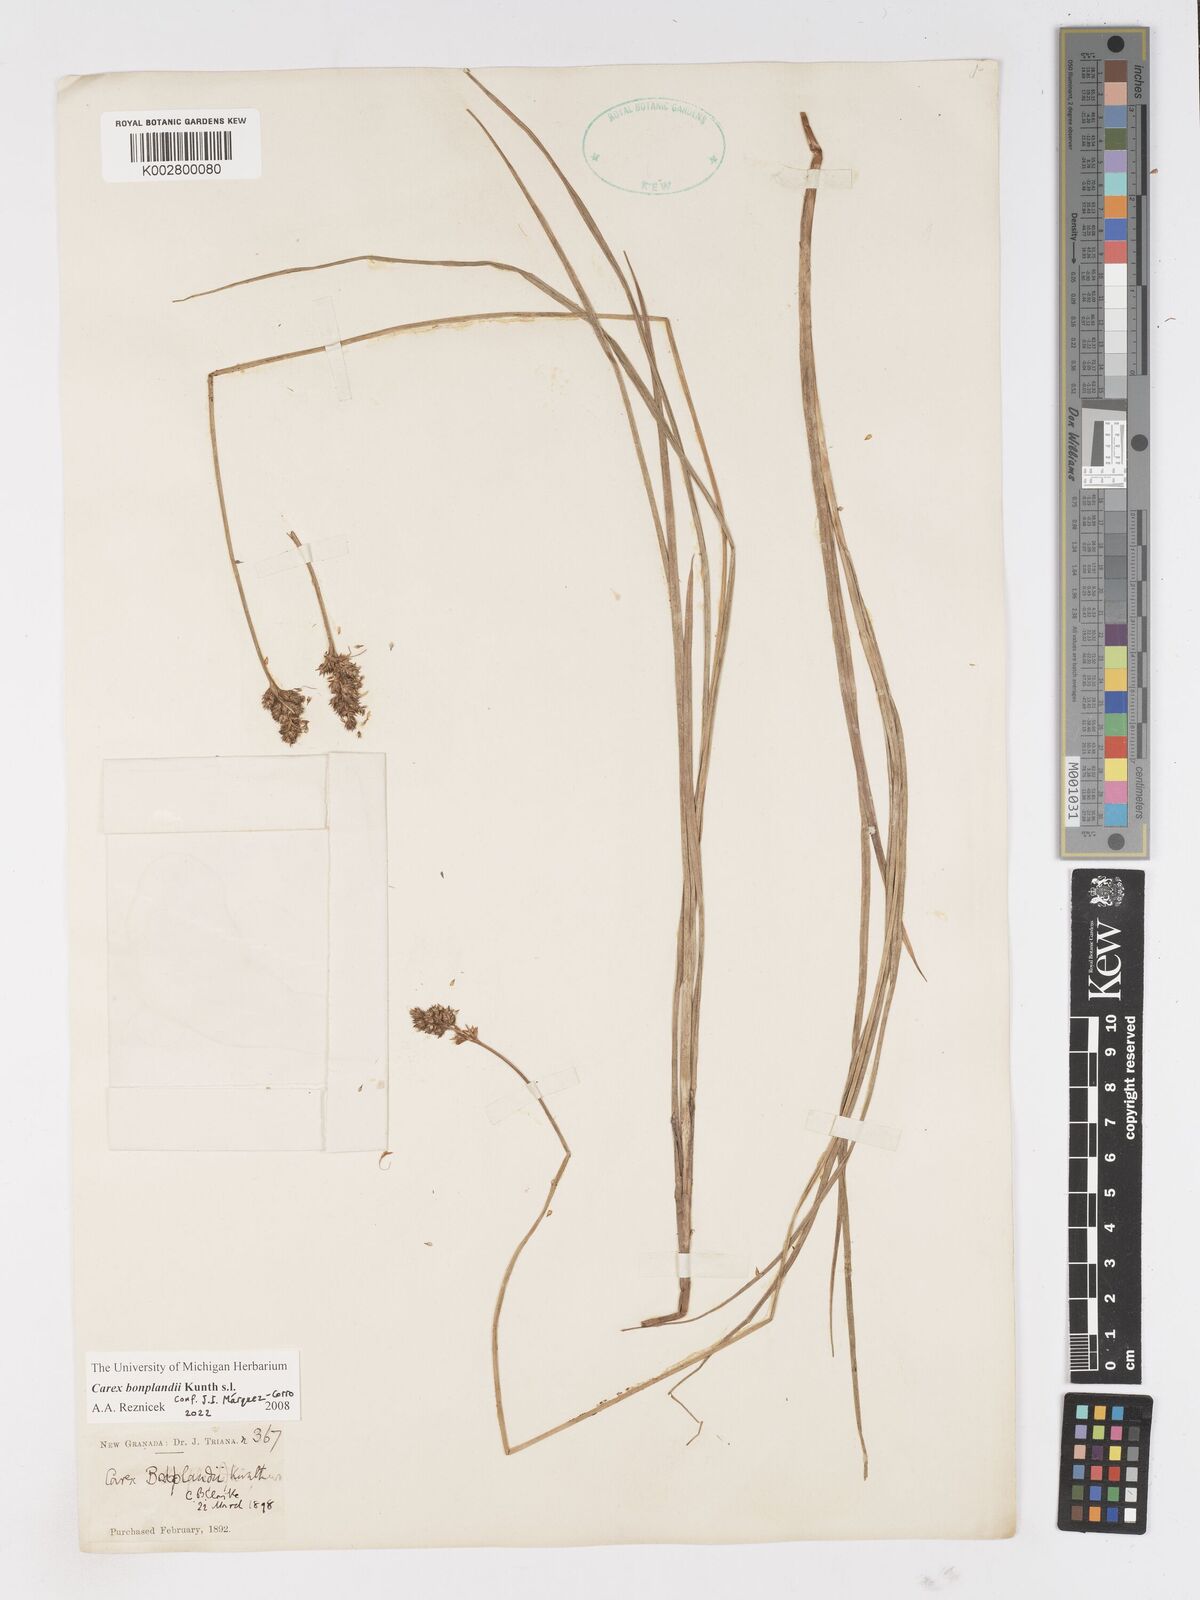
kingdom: Plantae
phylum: Tracheophyta
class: Liliopsida
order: Poales
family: Cyperaceae
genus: Carex
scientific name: Carex bonplandii
